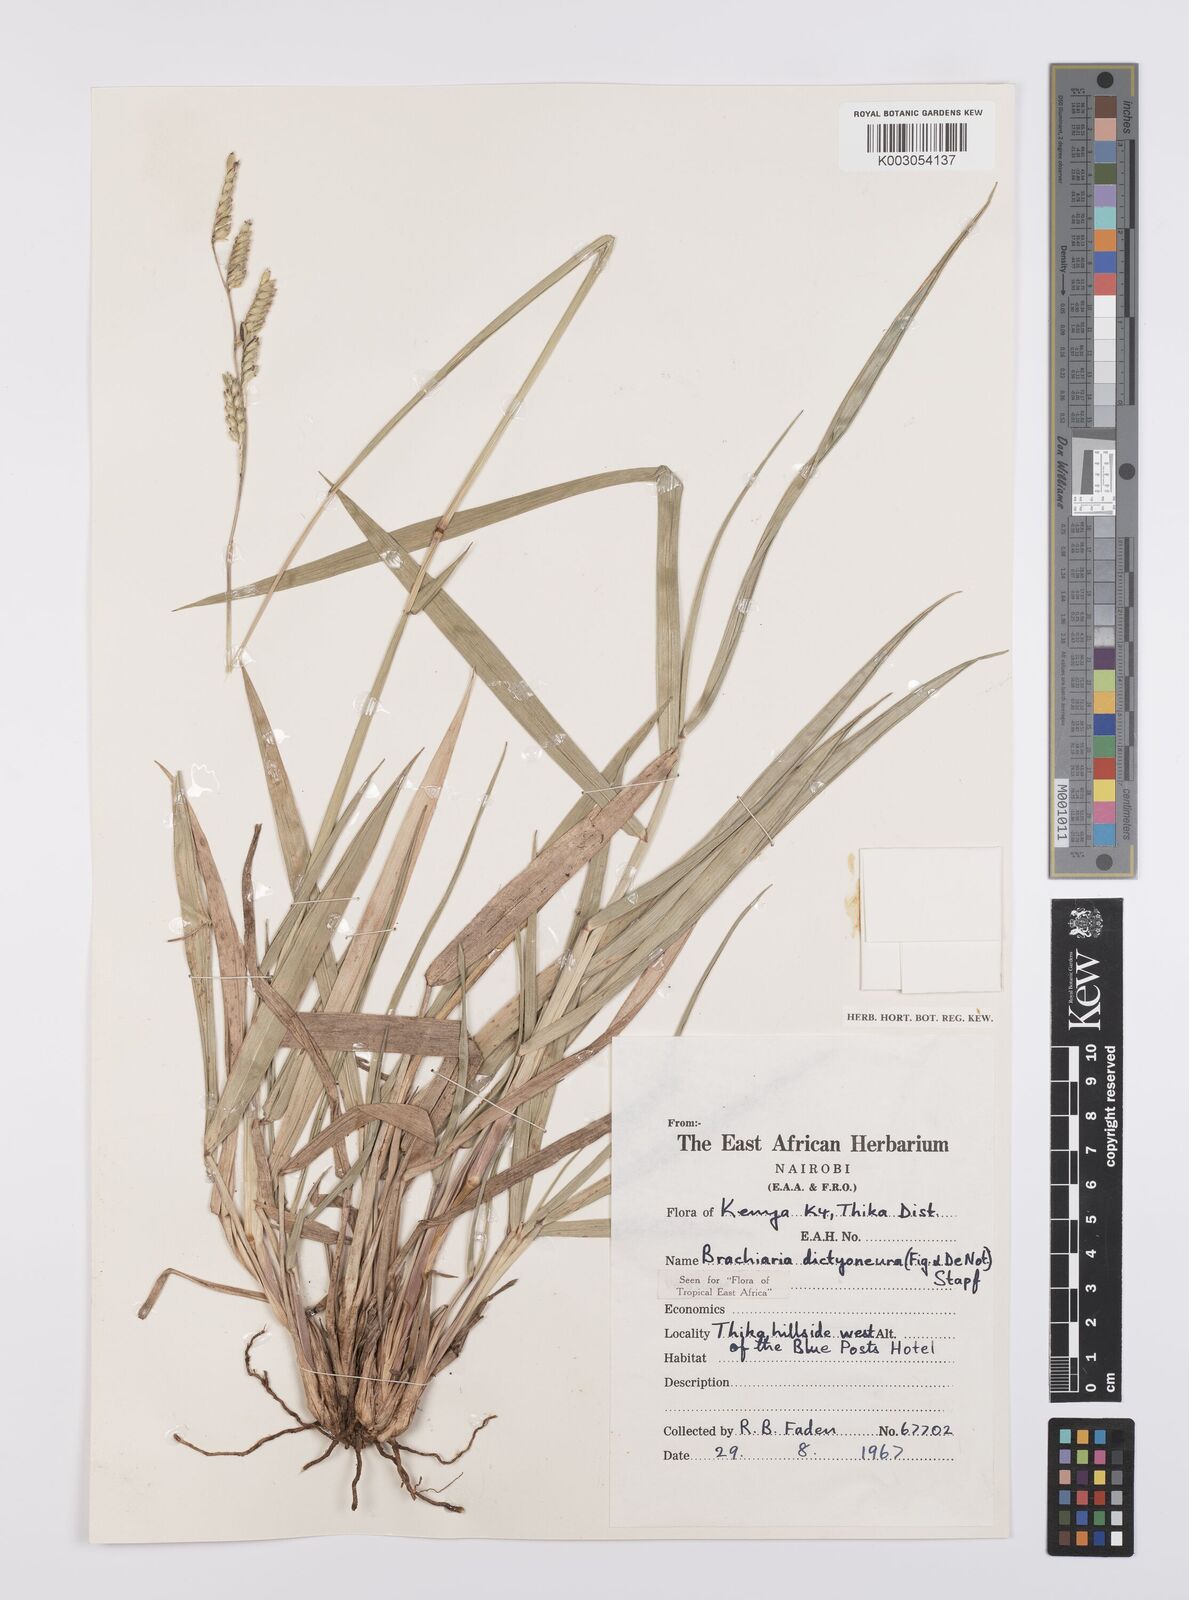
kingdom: Plantae
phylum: Tracheophyta
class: Liliopsida
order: Poales
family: Poaceae
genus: Urochloa
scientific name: Urochloa dictyoneura
